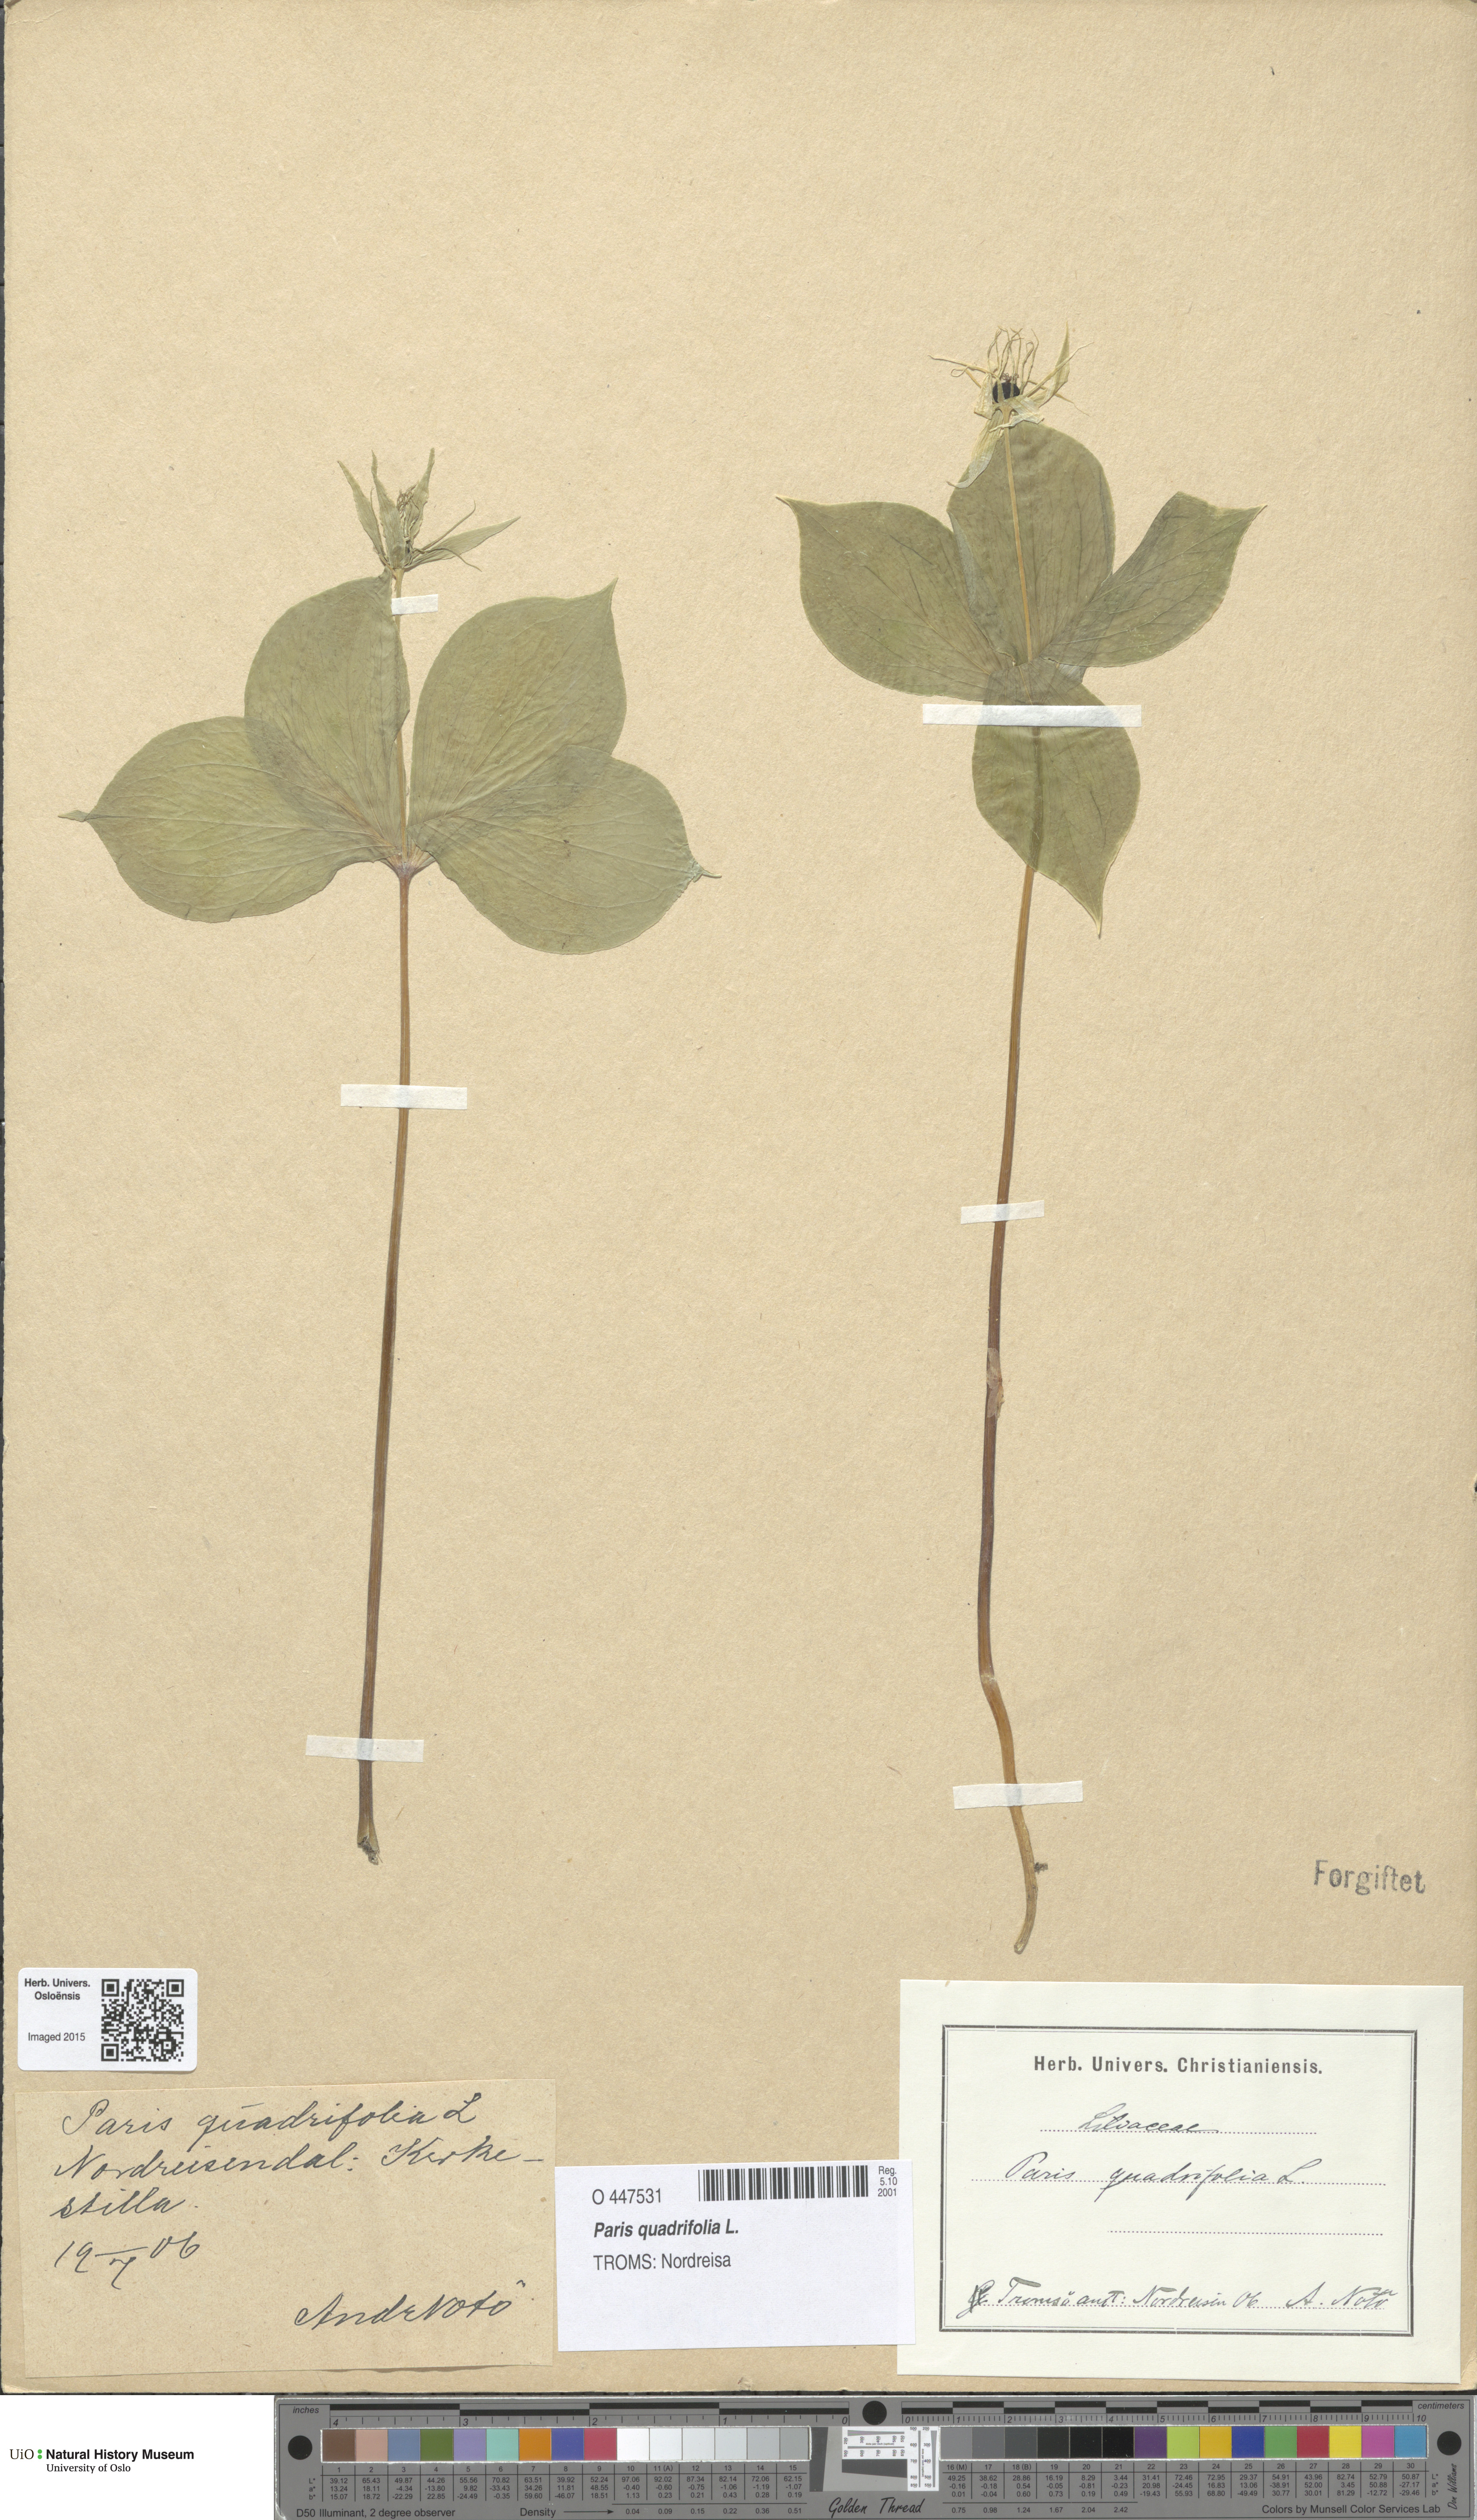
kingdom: Plantae
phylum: Tracheophyta
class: Liliopsida
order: Liliales
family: Melanthiaceae
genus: Paris
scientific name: Paris quadrifolia
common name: Herb-paris
